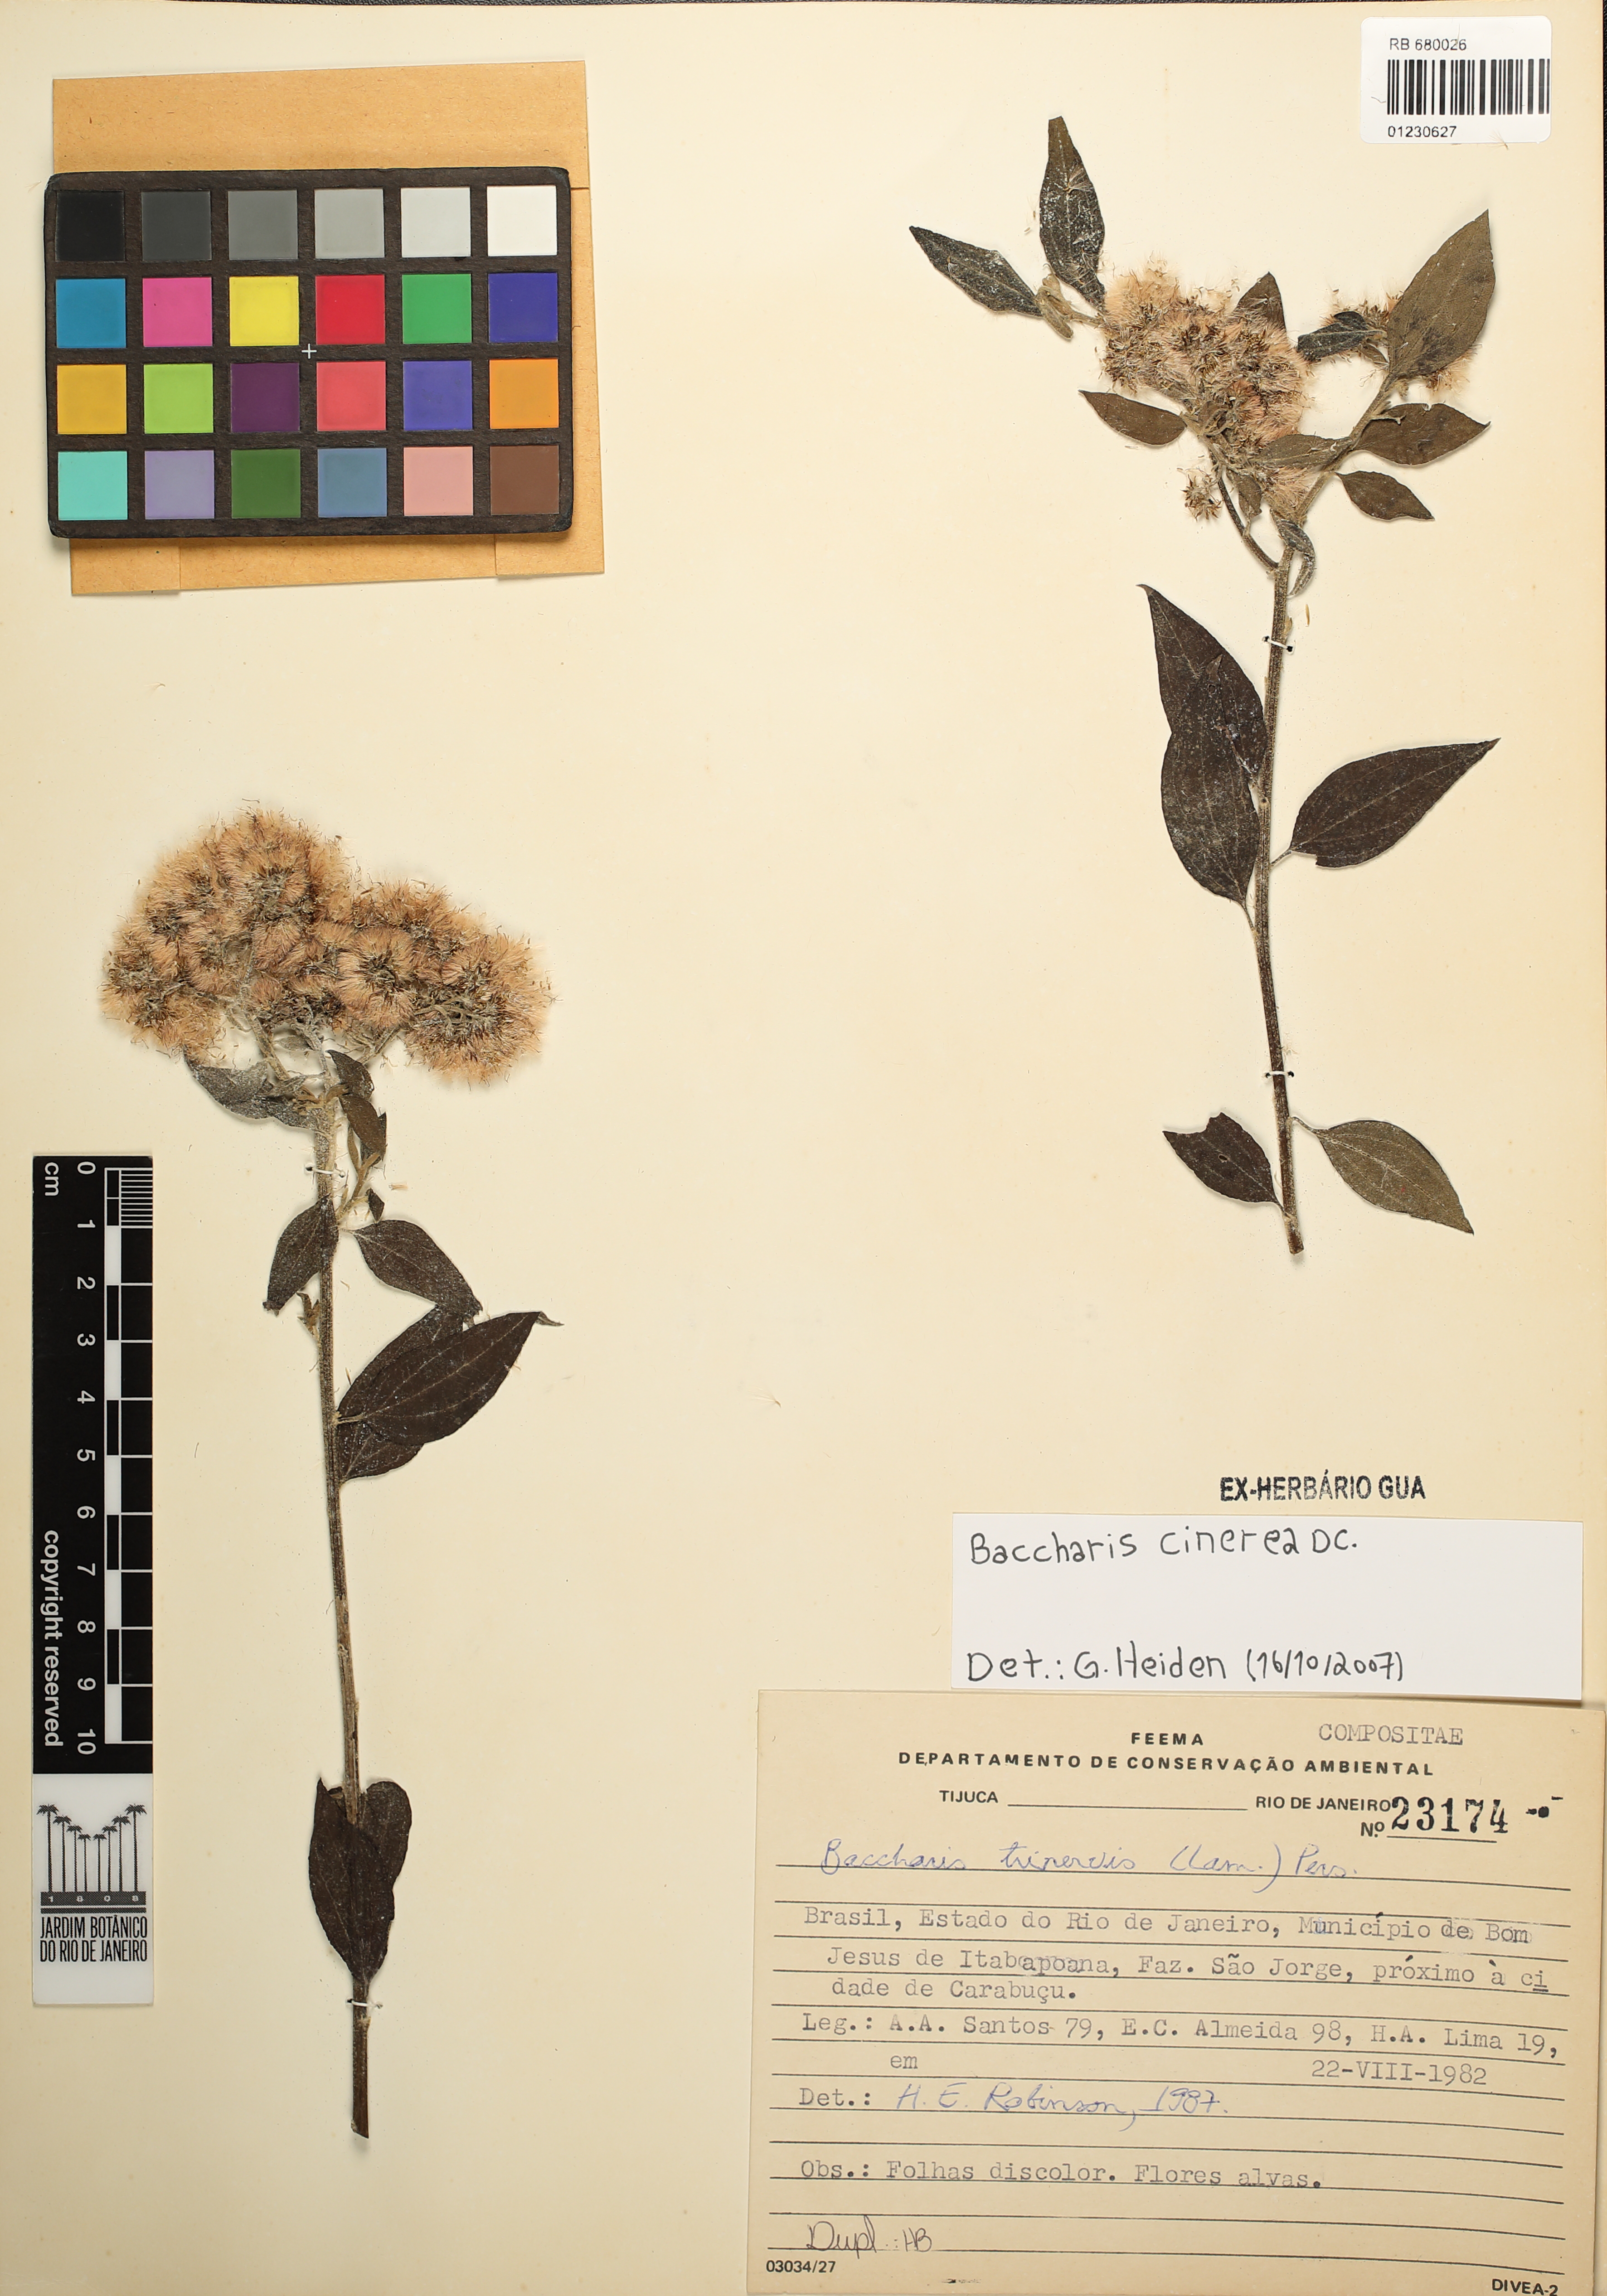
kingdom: Plantae
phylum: Tracheophyta
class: Magnoliopsida
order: Asterales
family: Asteraceae
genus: Baccharis
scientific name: Baccharis trinervis
